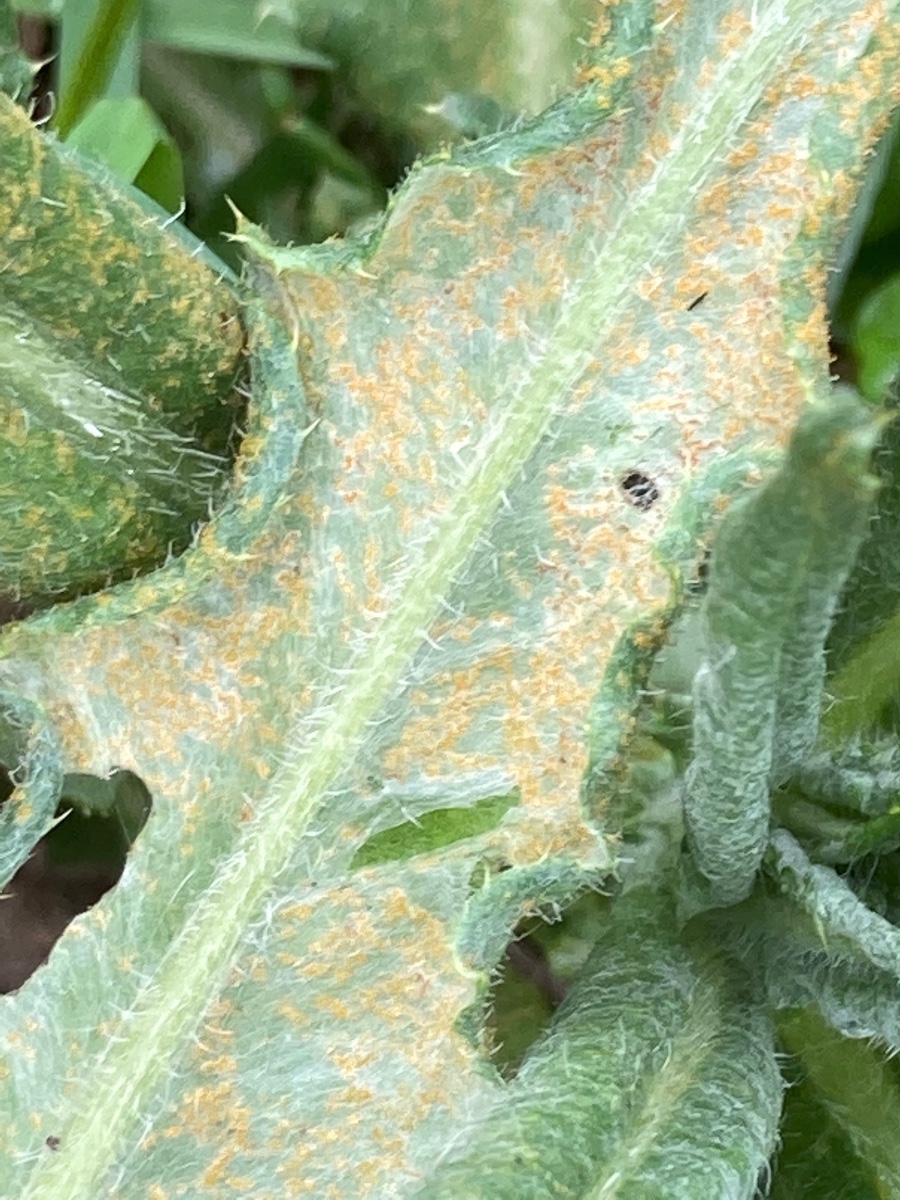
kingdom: Fungi
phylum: Basidiomycota
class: Pucciniomycetes
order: Pucciniales
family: Pucciniaceae
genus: Puccinia
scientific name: Puccinia suaveolens
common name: tidsel-tvecellerust
